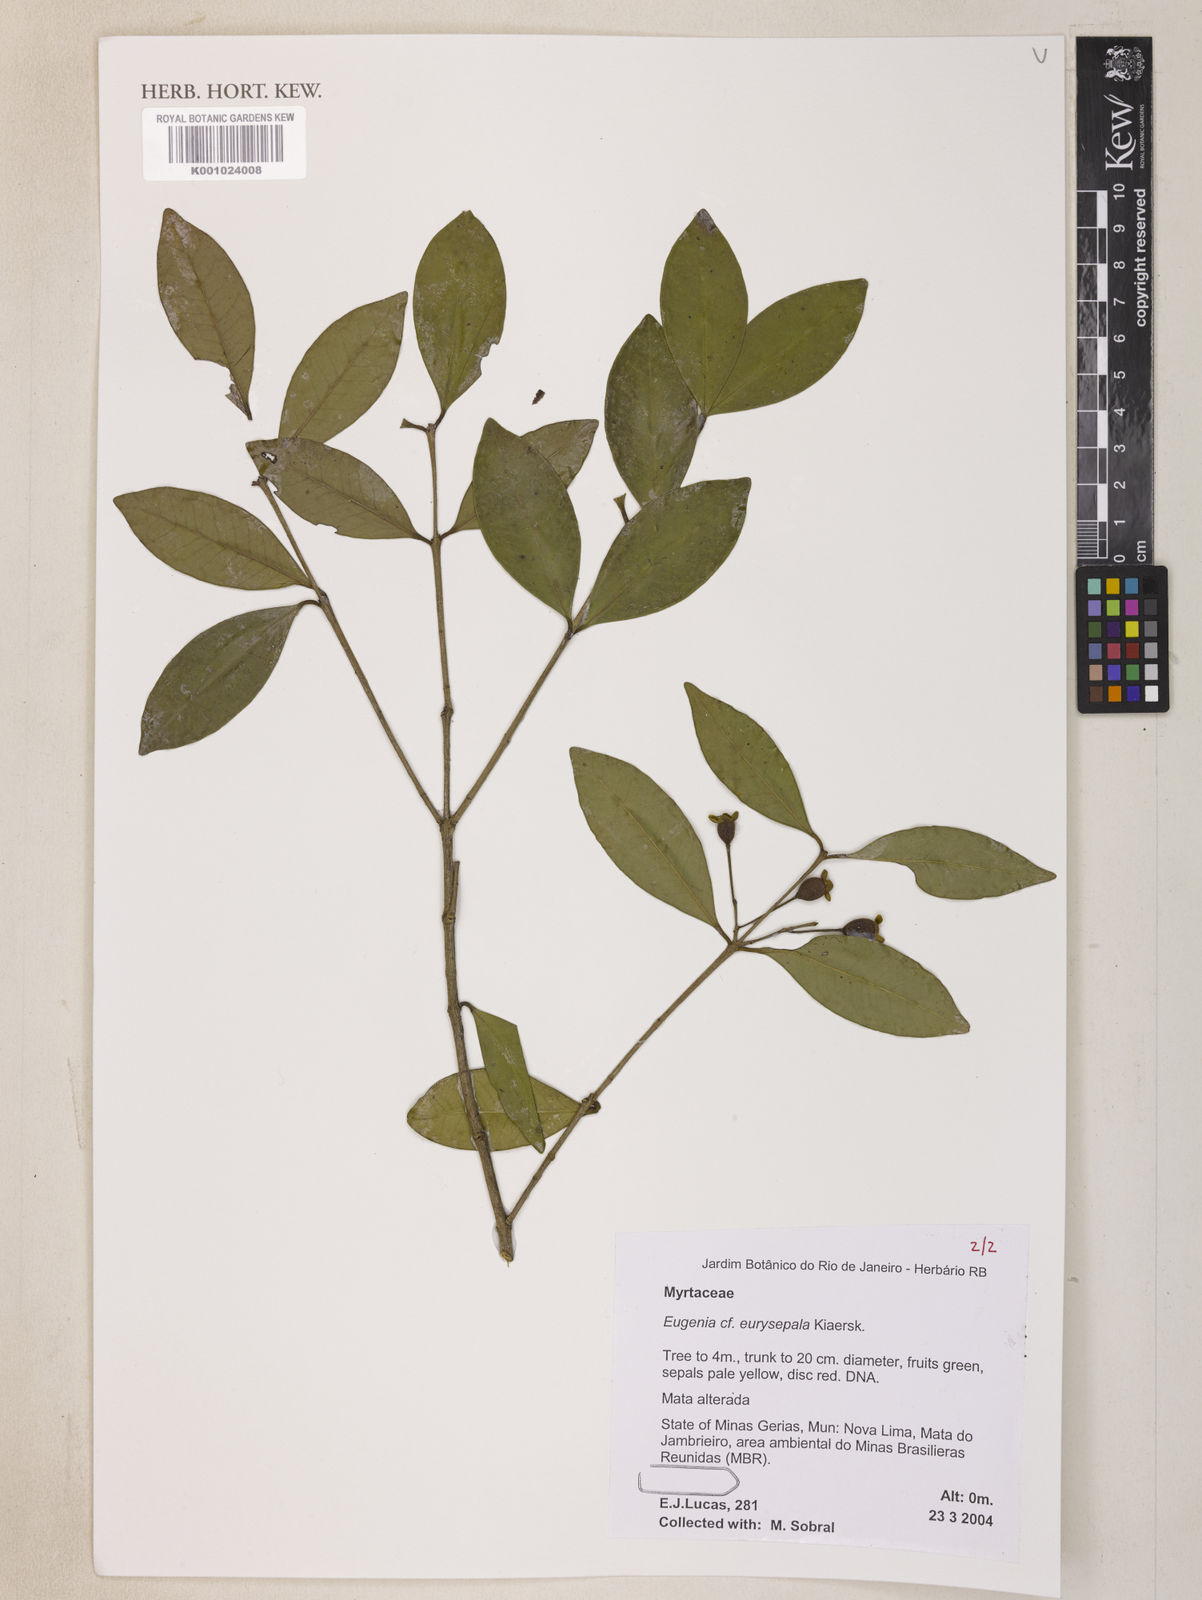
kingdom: Plantae
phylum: Tracheophyta
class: Magnoliopsida
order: Myrtales
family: Myrtaceae
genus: Eugenia
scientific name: Eugenia nutans
